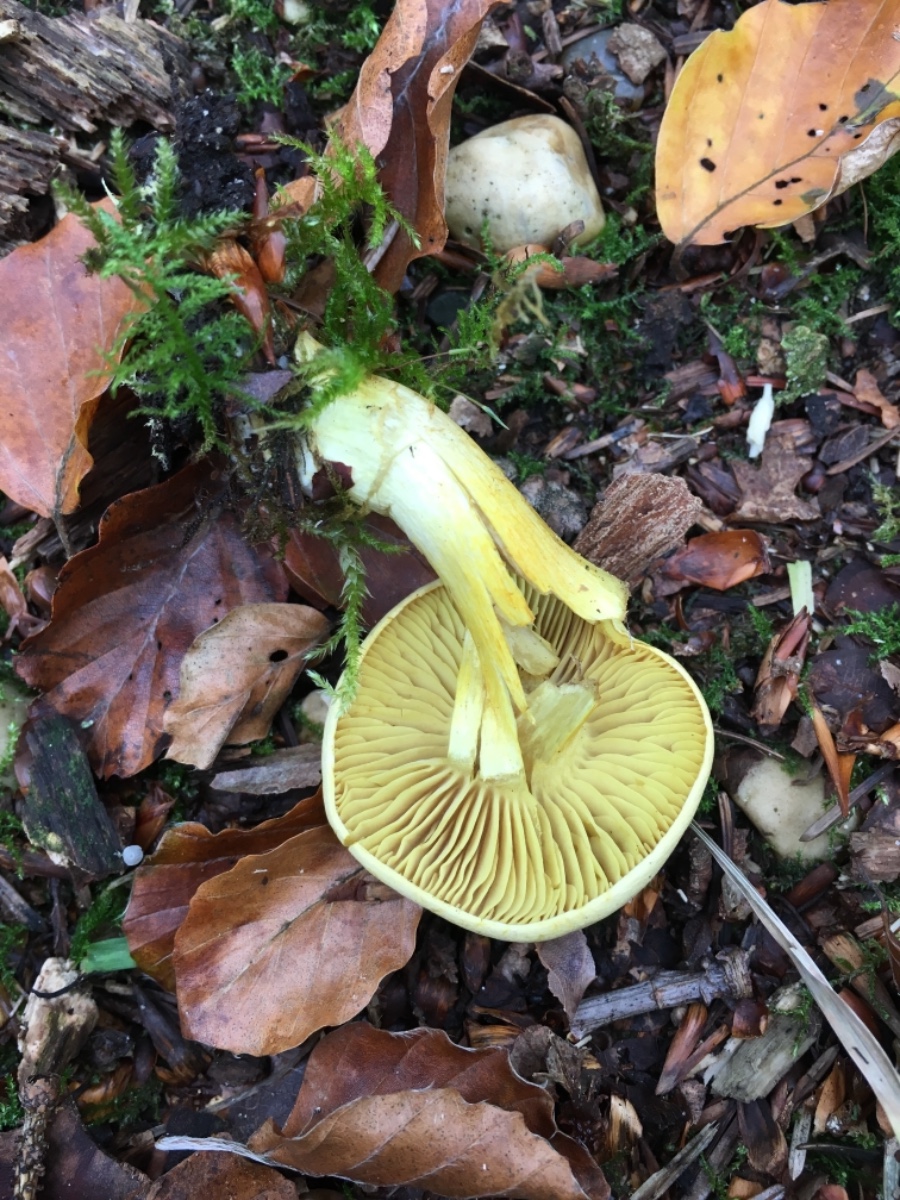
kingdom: Fungi
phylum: Basidiomycota
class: Agaricomycetes
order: Agaricales
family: Tricholomataceae
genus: Tricholoma
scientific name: Tricholoma sulphureum
